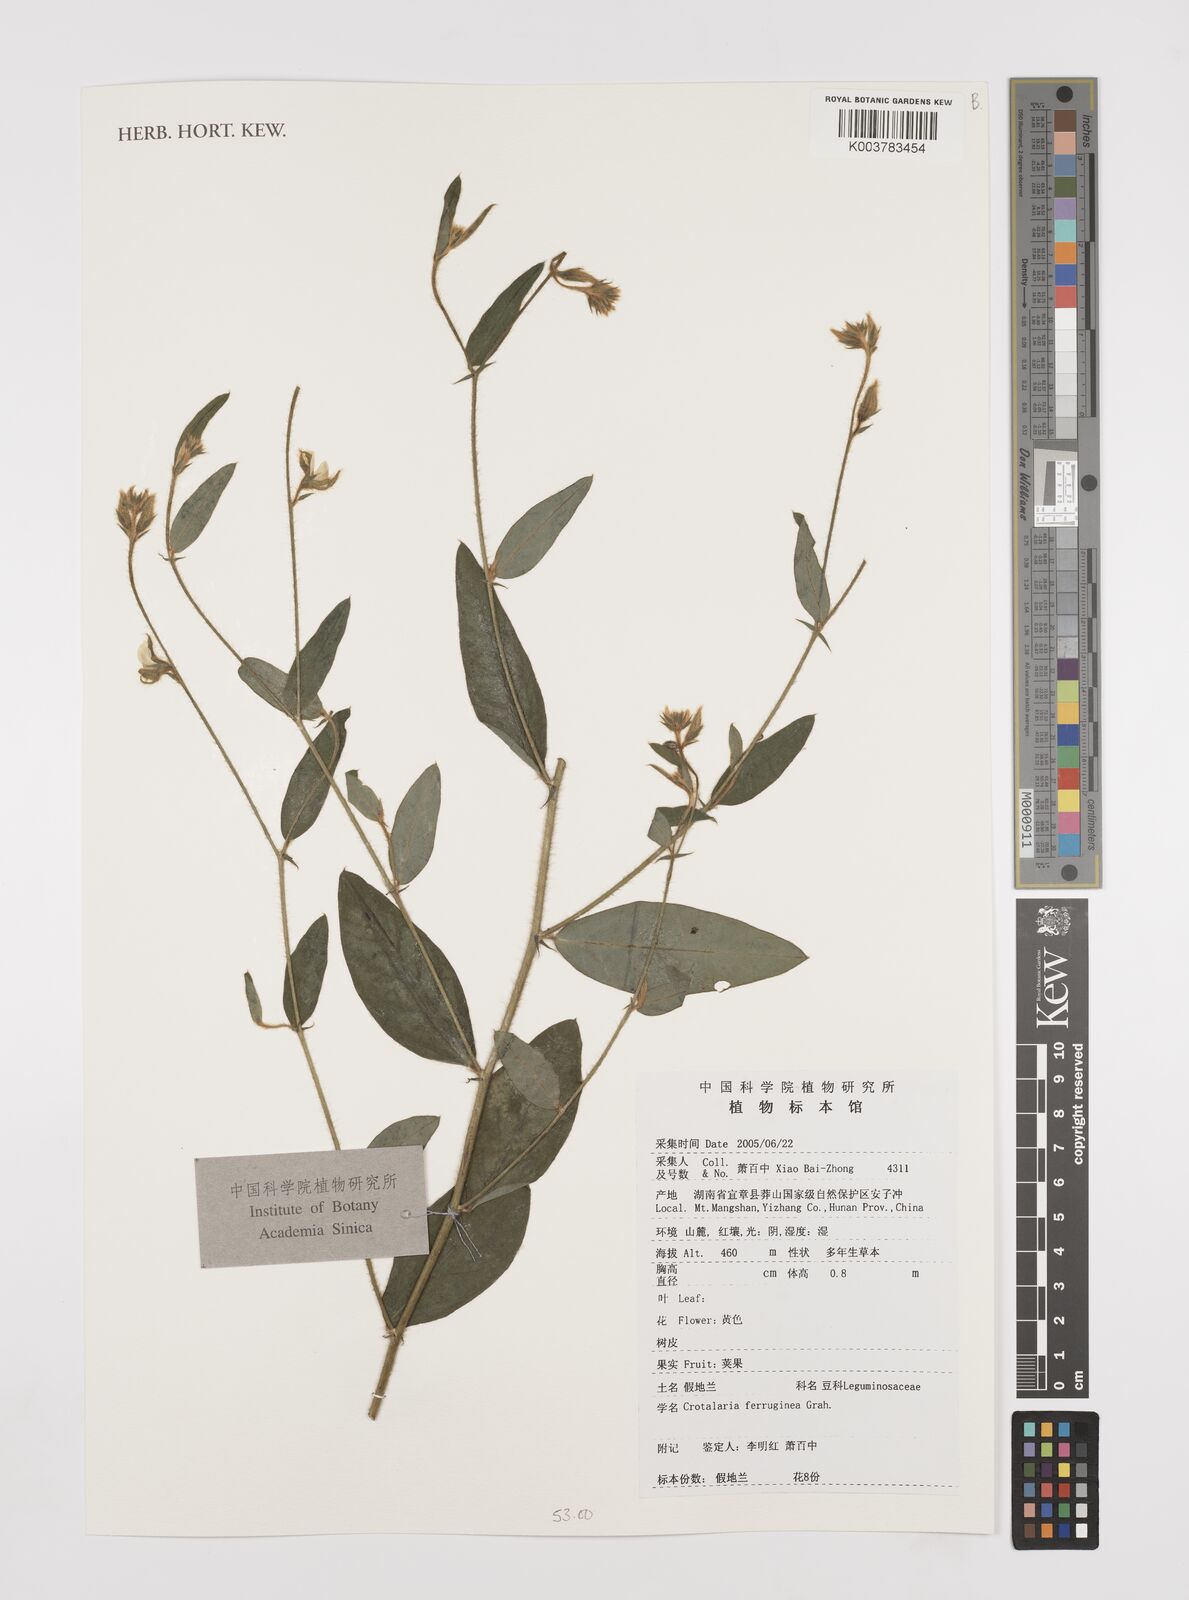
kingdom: Plantae
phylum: Tracheophyta
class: Magnoliopsida
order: Fabales
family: Fabaceae
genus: Crotalaria
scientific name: Crotalaria lejoloba
